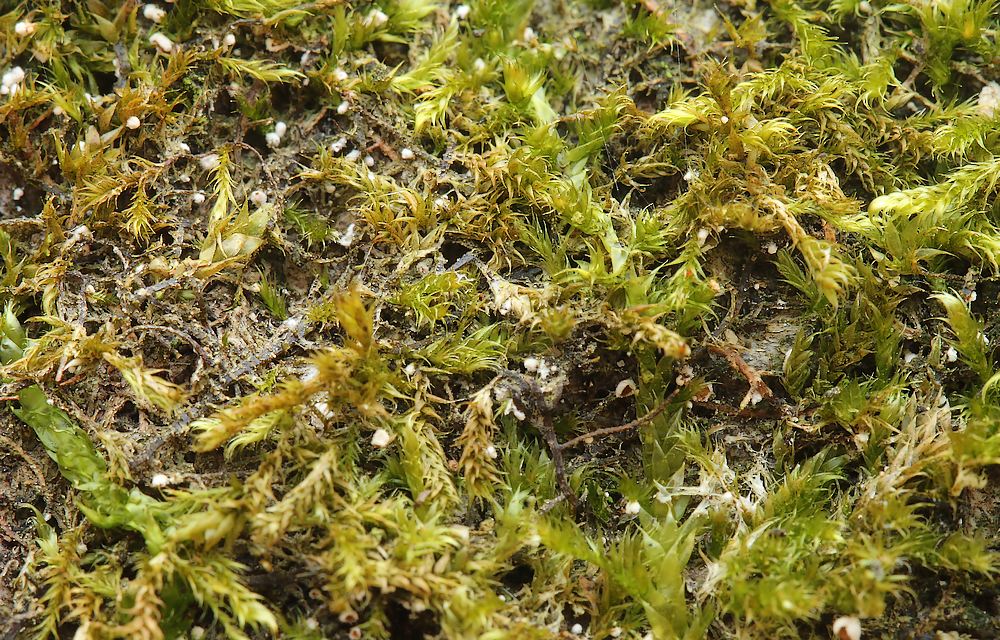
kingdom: Fungi
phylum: Basidiomycota
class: Agaricomycetes
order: Agaricales
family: Chromocyphellaceae
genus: Chromocyphella
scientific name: Chromocyphella muscicola
